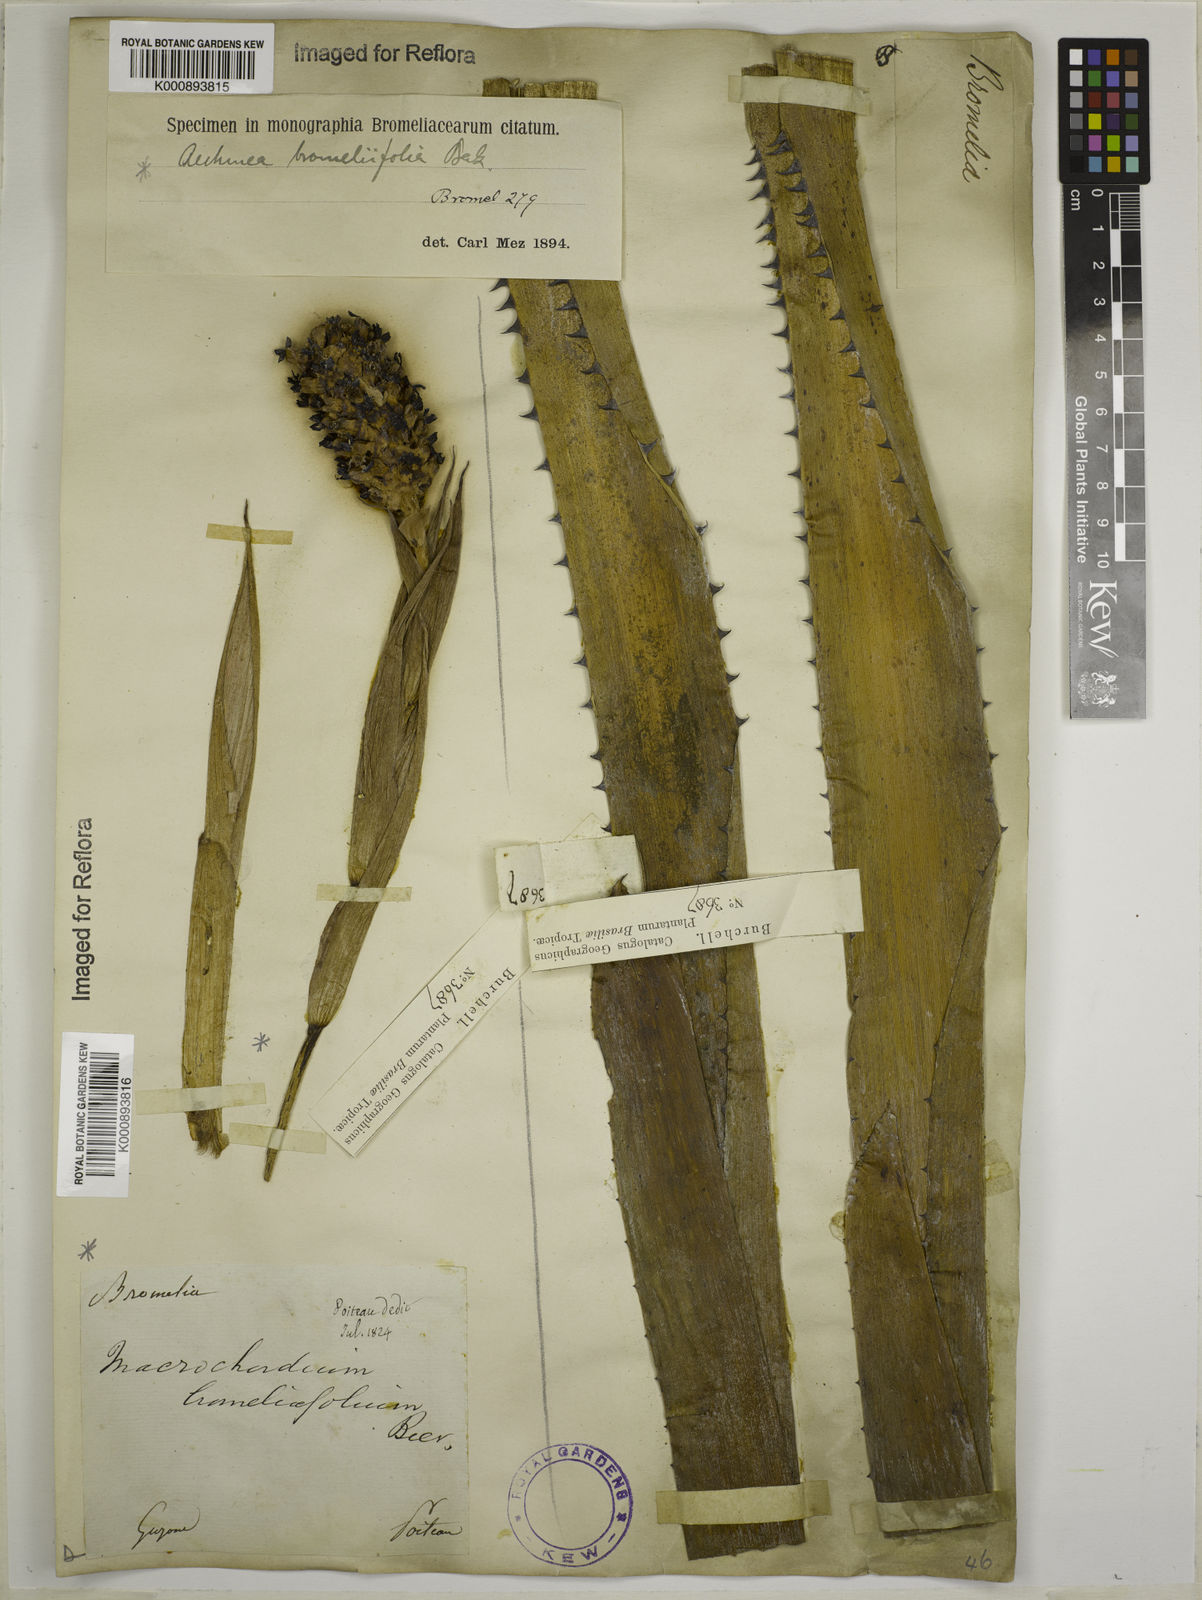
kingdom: Plantae
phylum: Tracheophyta
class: Liliopsida
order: Poales
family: Bromeliaceae
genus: Aechmea
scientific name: Aechmea
